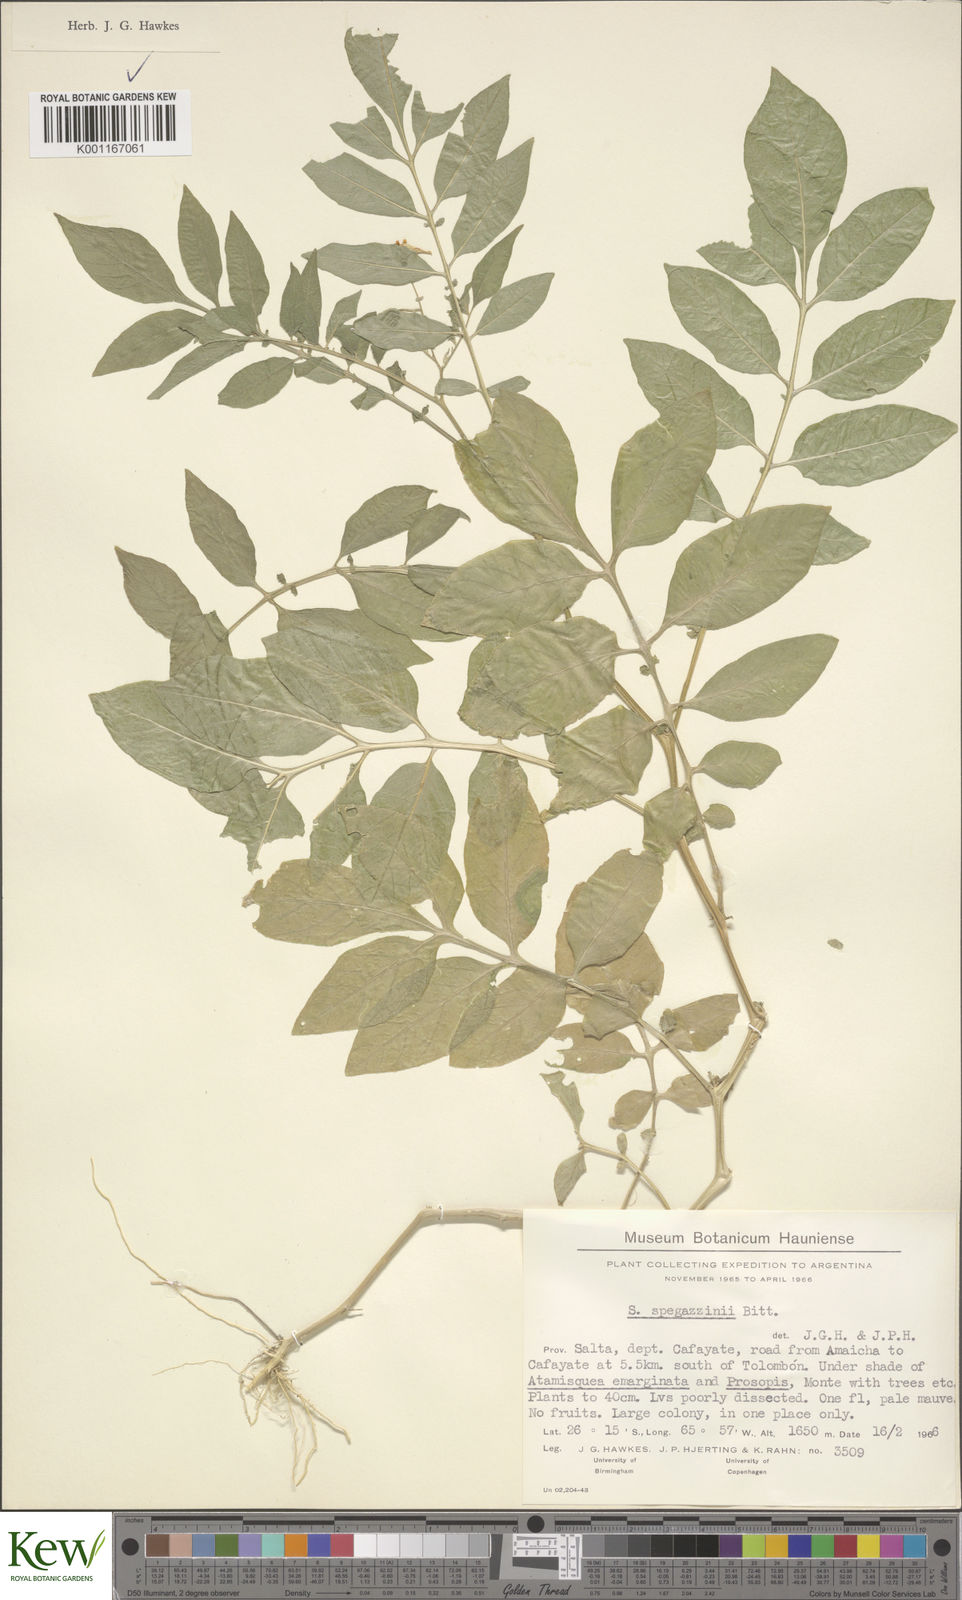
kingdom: Plantae
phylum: Tracheophyta
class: Magnoliopsida
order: Solanales
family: Solanaceae
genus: Solanum
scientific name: Solanum brevicaule
